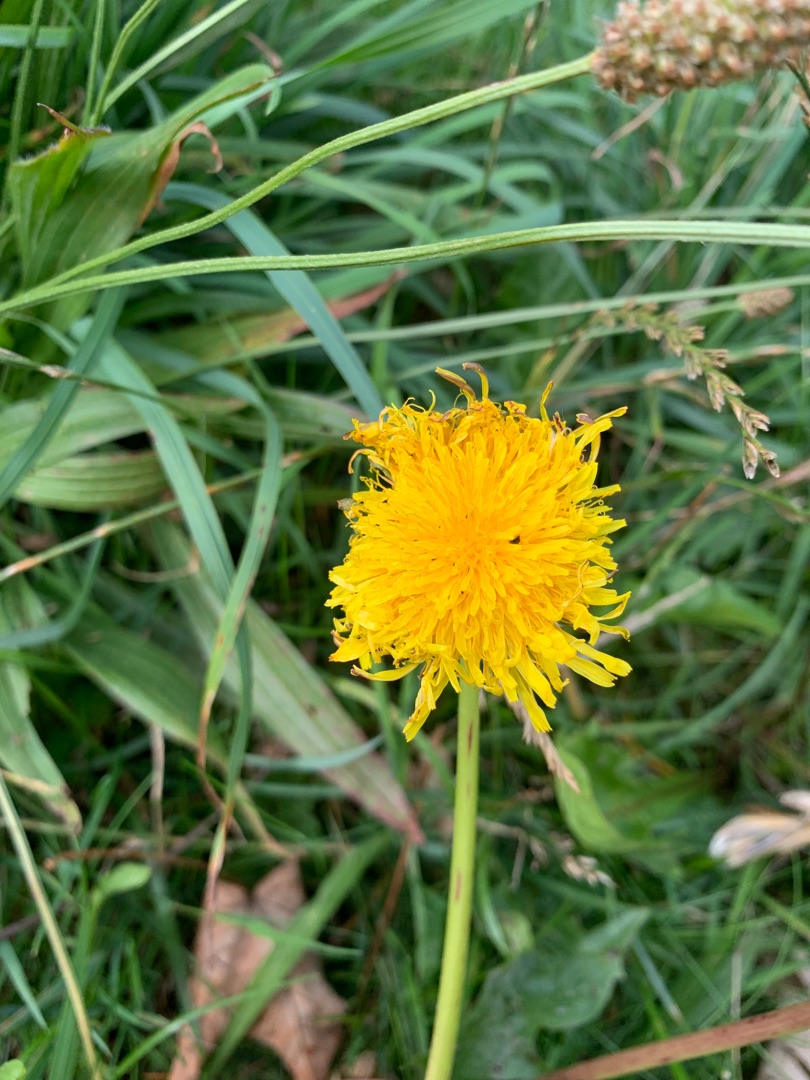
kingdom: Plantae
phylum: Tracheophyta
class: Magnoliopsida
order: Asterales
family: Asteraceae
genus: Taraxacum
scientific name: Taraxacum
